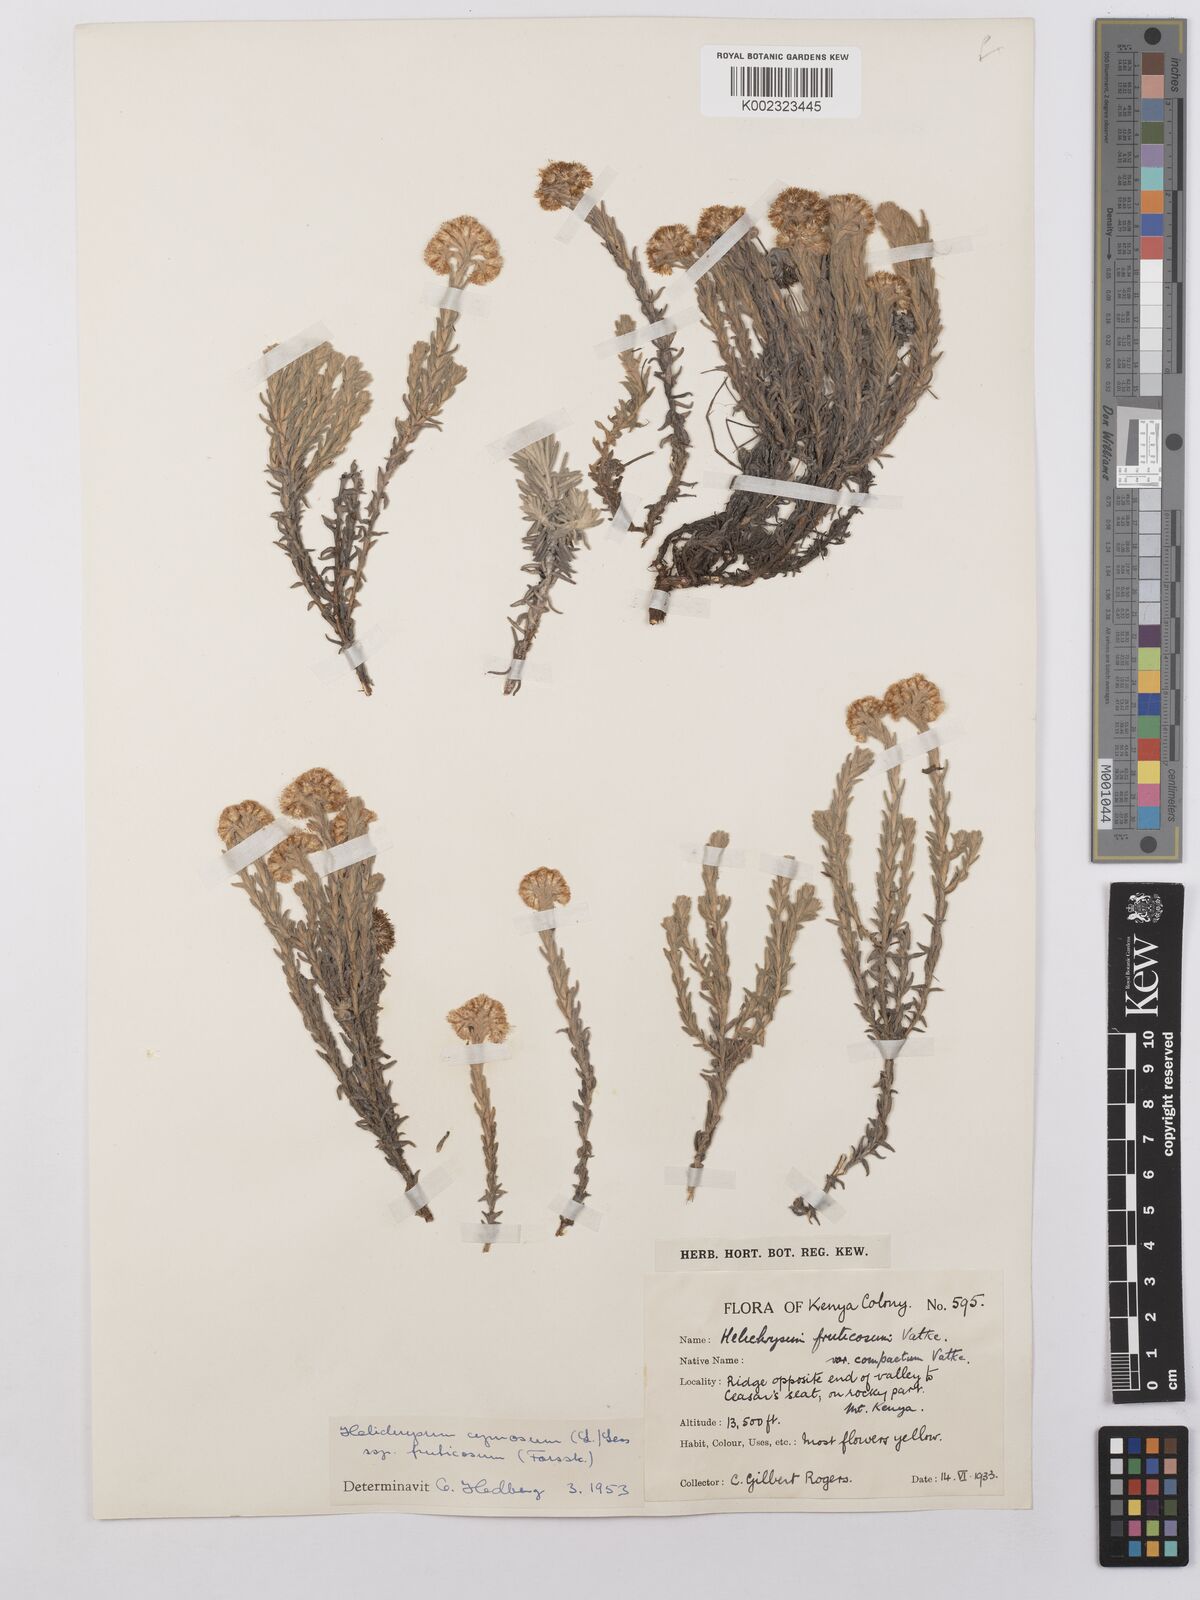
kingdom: Plantae
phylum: Tracheophyta
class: Magnoliopsida
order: Asterales
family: Asteraceae
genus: Helichrysum
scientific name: Helichrysum forskahlii
